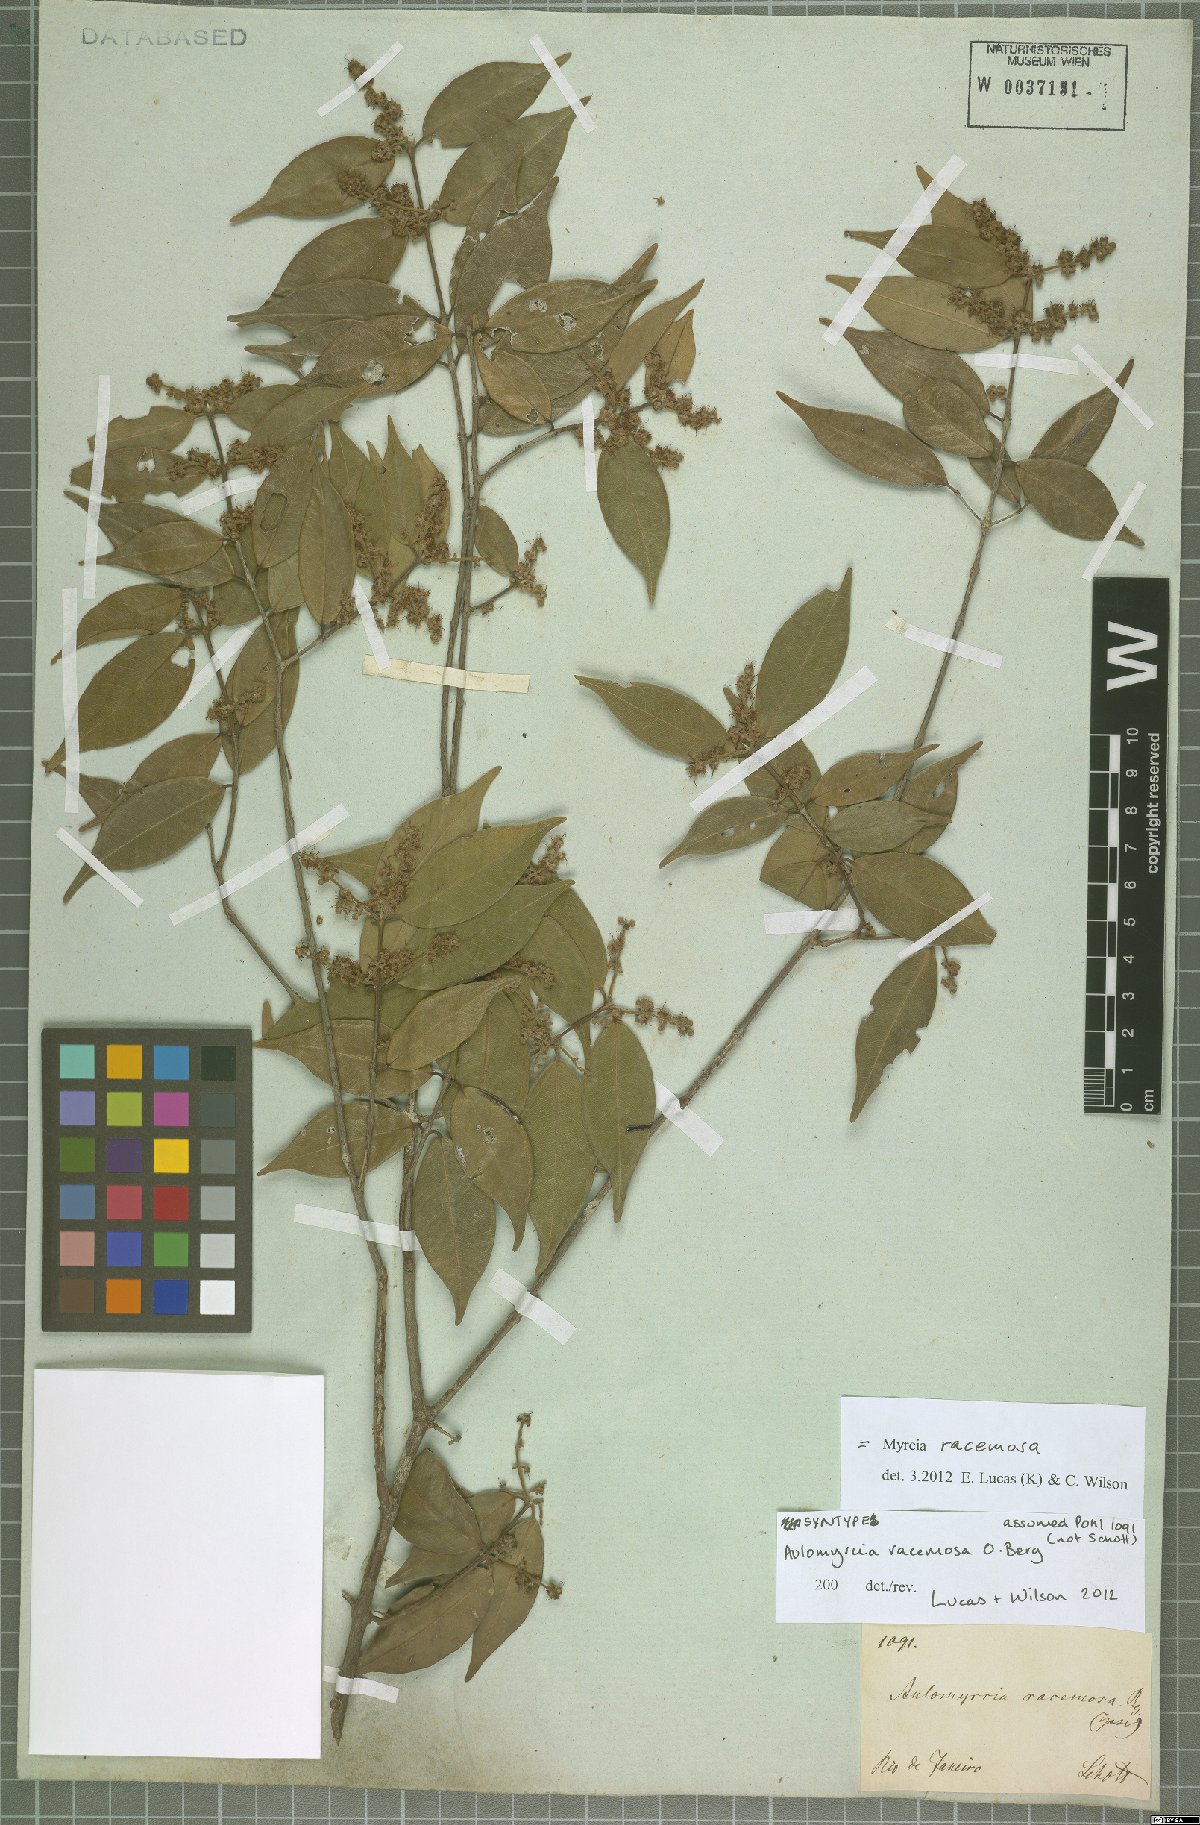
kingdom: Plantae
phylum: Tracheophyta
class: Magnoliopsida
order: Myrtales
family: Myrtaceae
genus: Myrcia
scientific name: Myrcia racemosa
